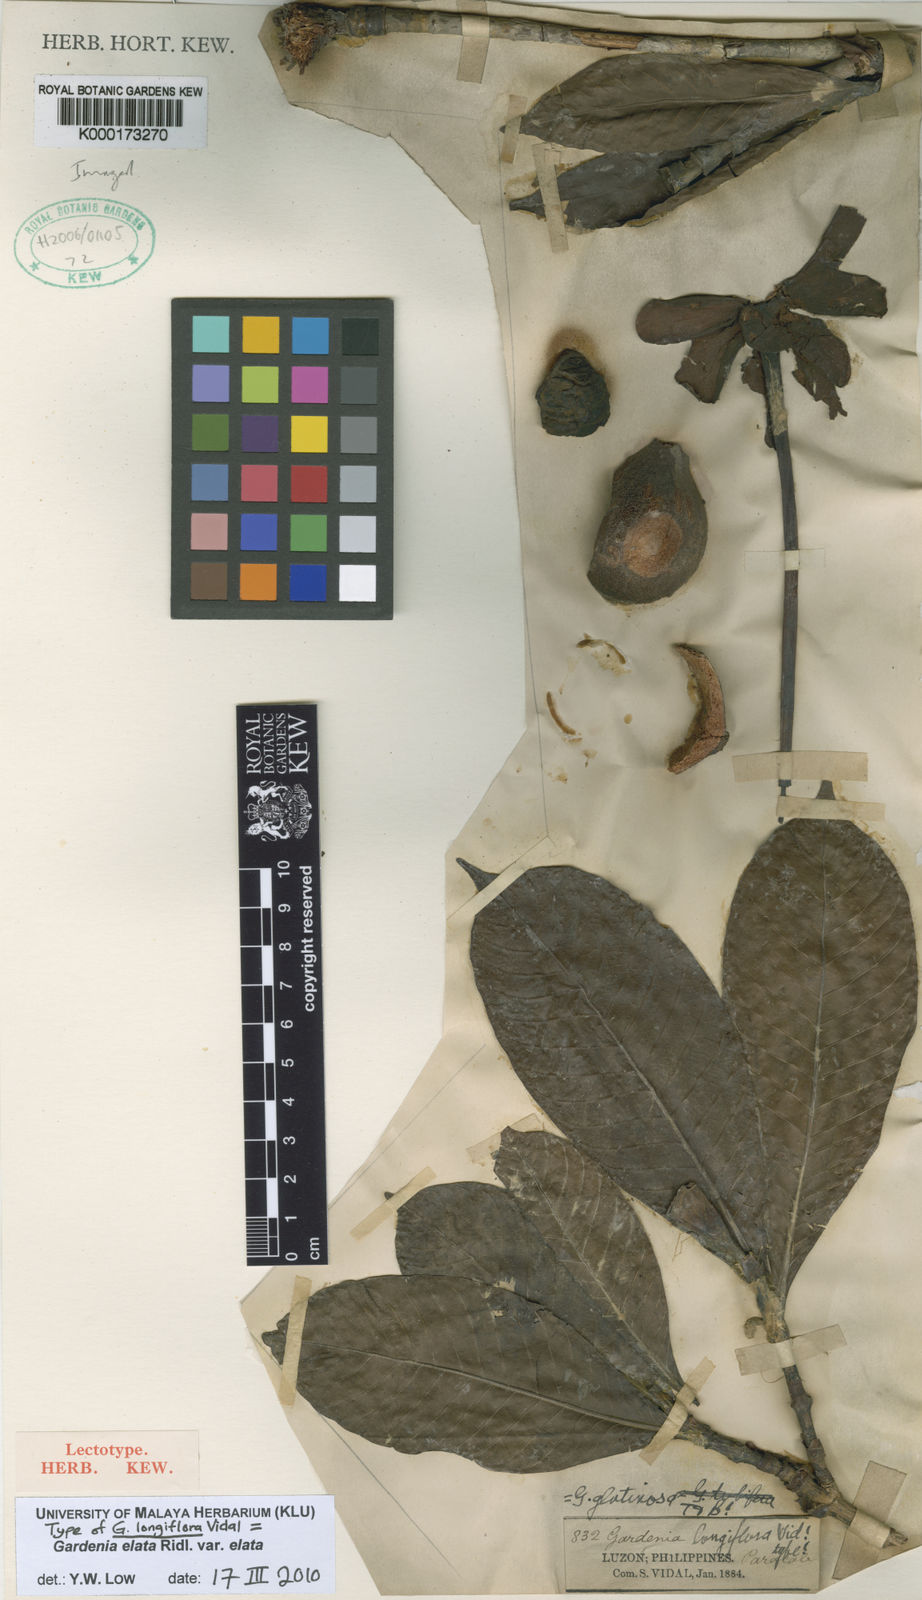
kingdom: Plantae
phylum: Tracheophyta
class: Magnoliopsida
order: Gentianales
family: Rubiaceae
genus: Gardenia
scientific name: Gardenia elata
